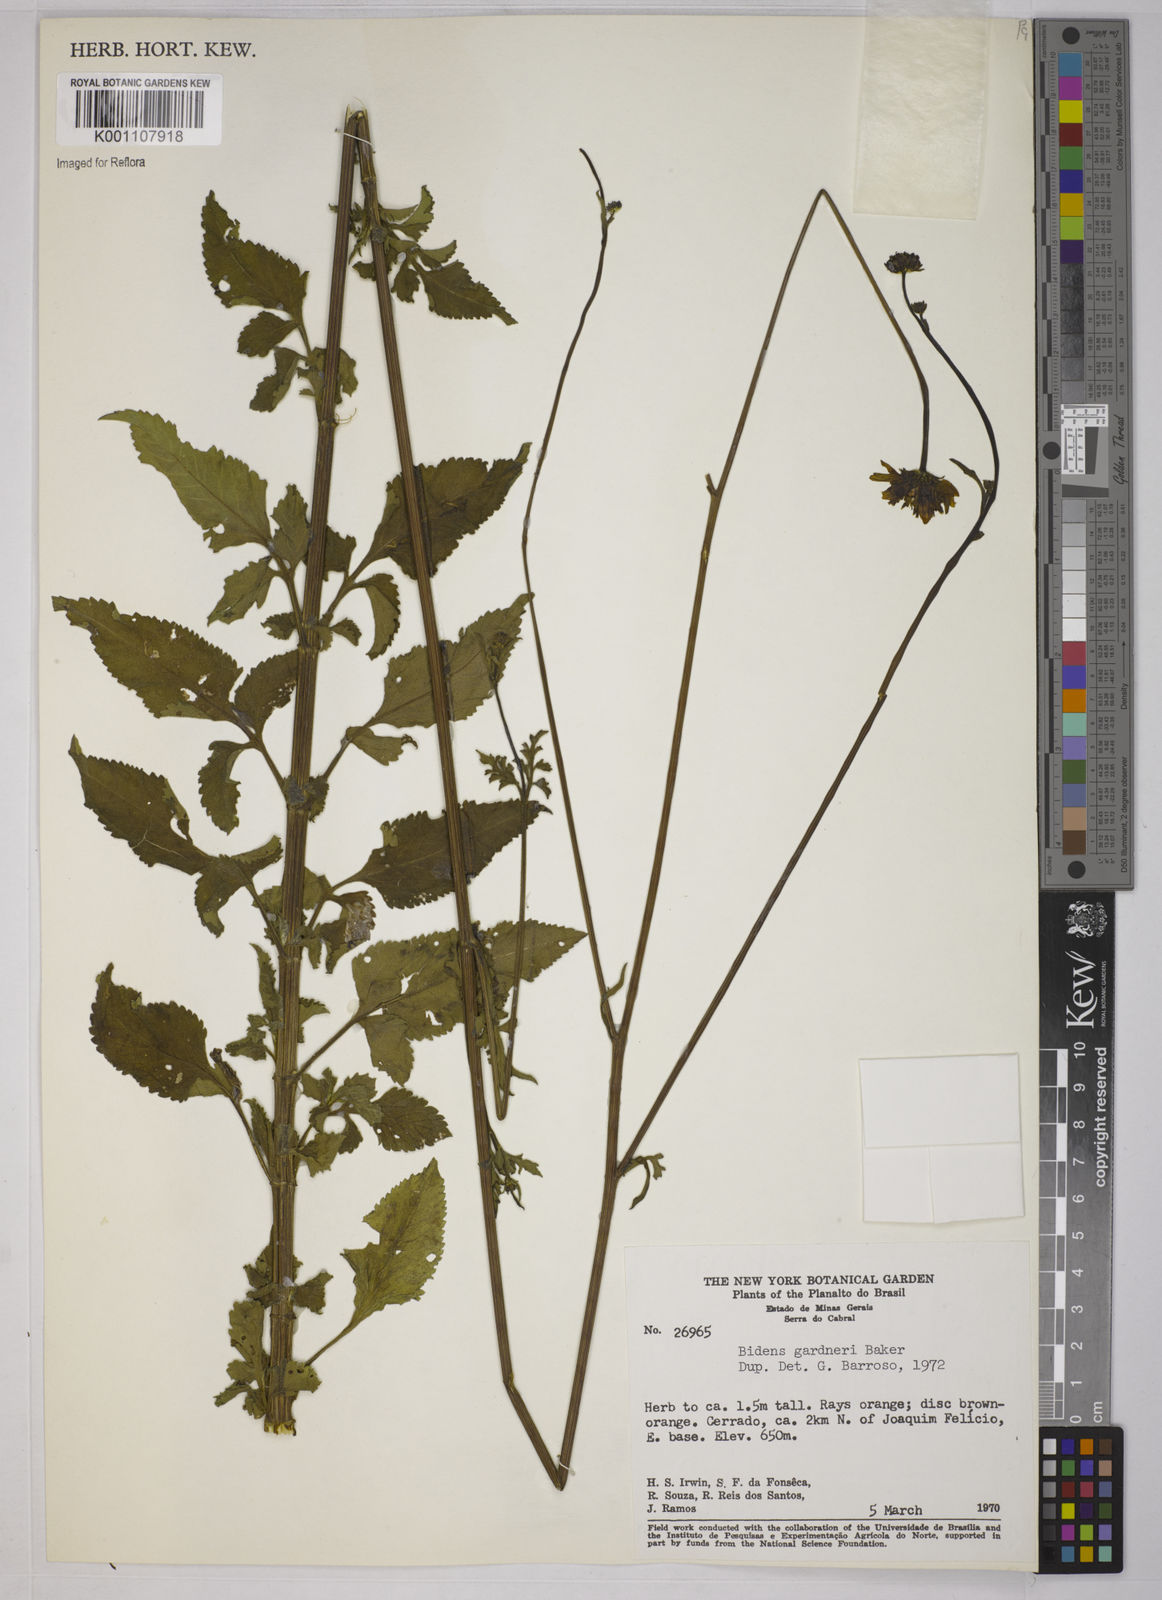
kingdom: Plantae
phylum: Tracheophyta
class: Magnoliopsida
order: Asterales
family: Asteraceae
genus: Bidens
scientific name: Bidens gardneri
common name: Ridge beggartick
